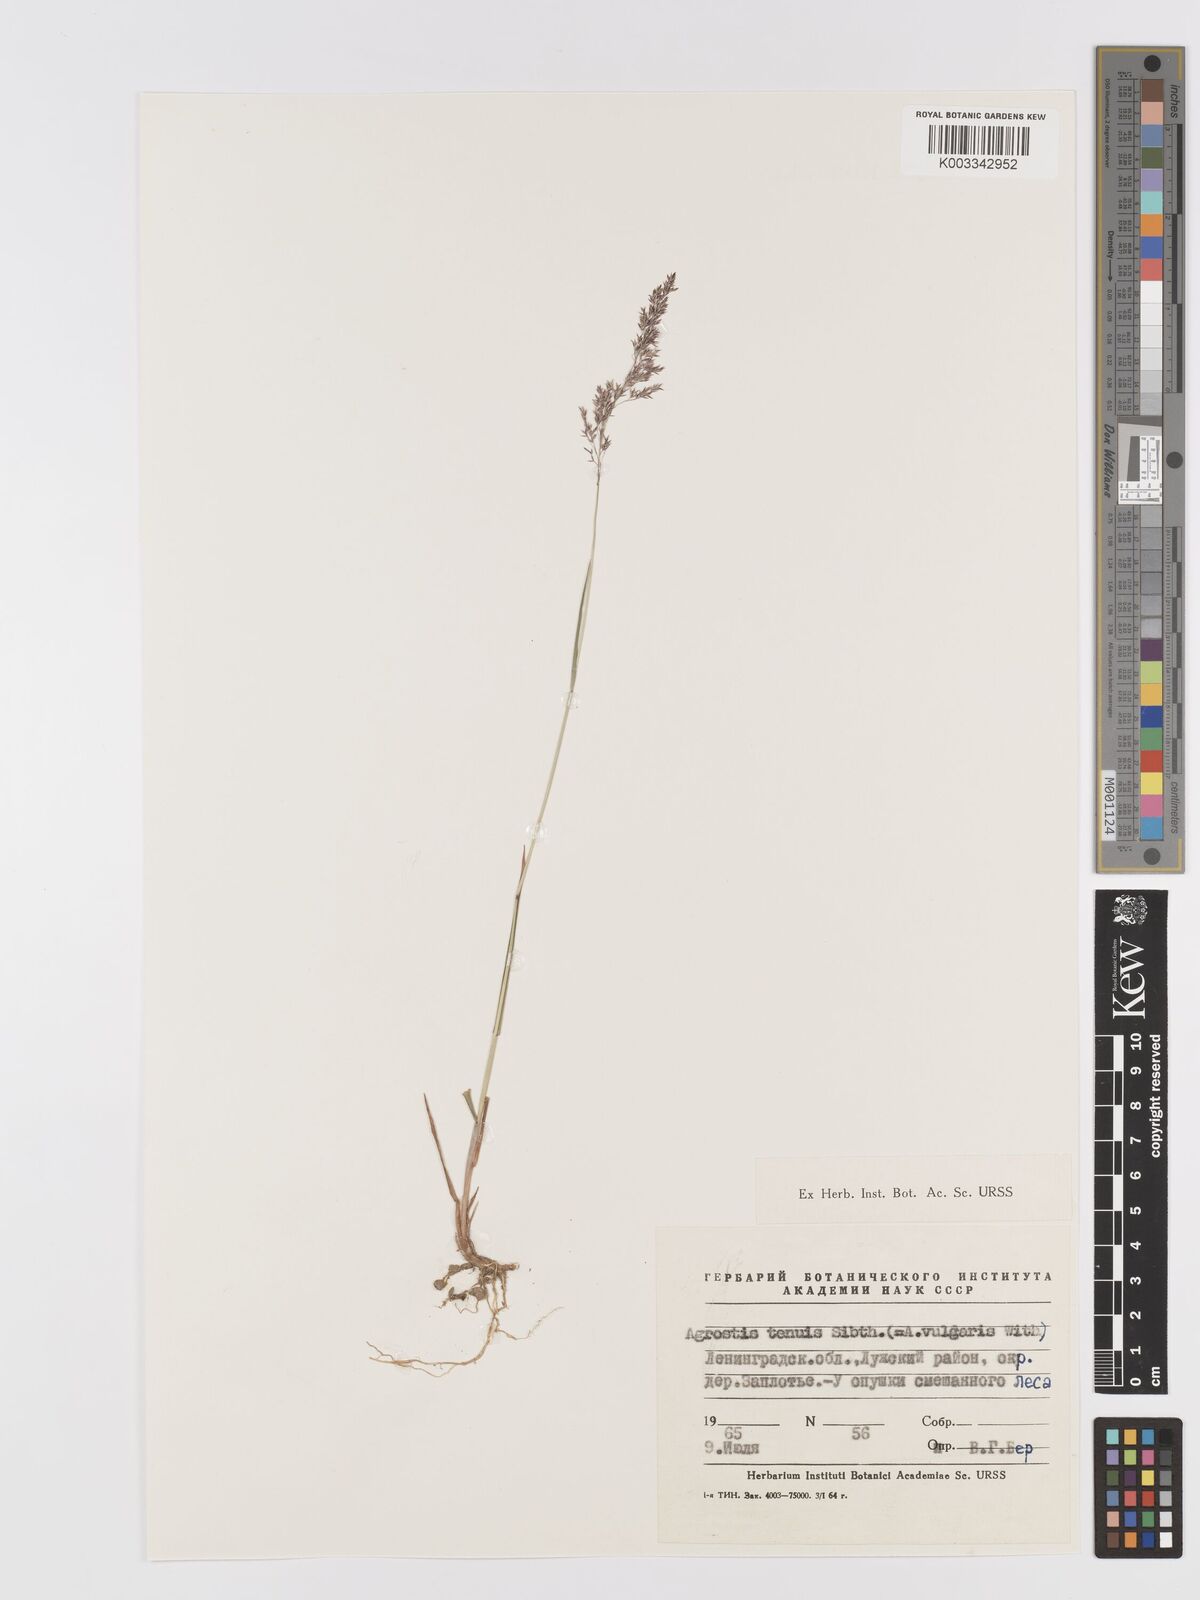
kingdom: Plantae
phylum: Tracheophyta
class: Liliopsida
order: Poales
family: Poaceae
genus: Agrostis
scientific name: Agrostis capillaris
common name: Colonial bentgrass
